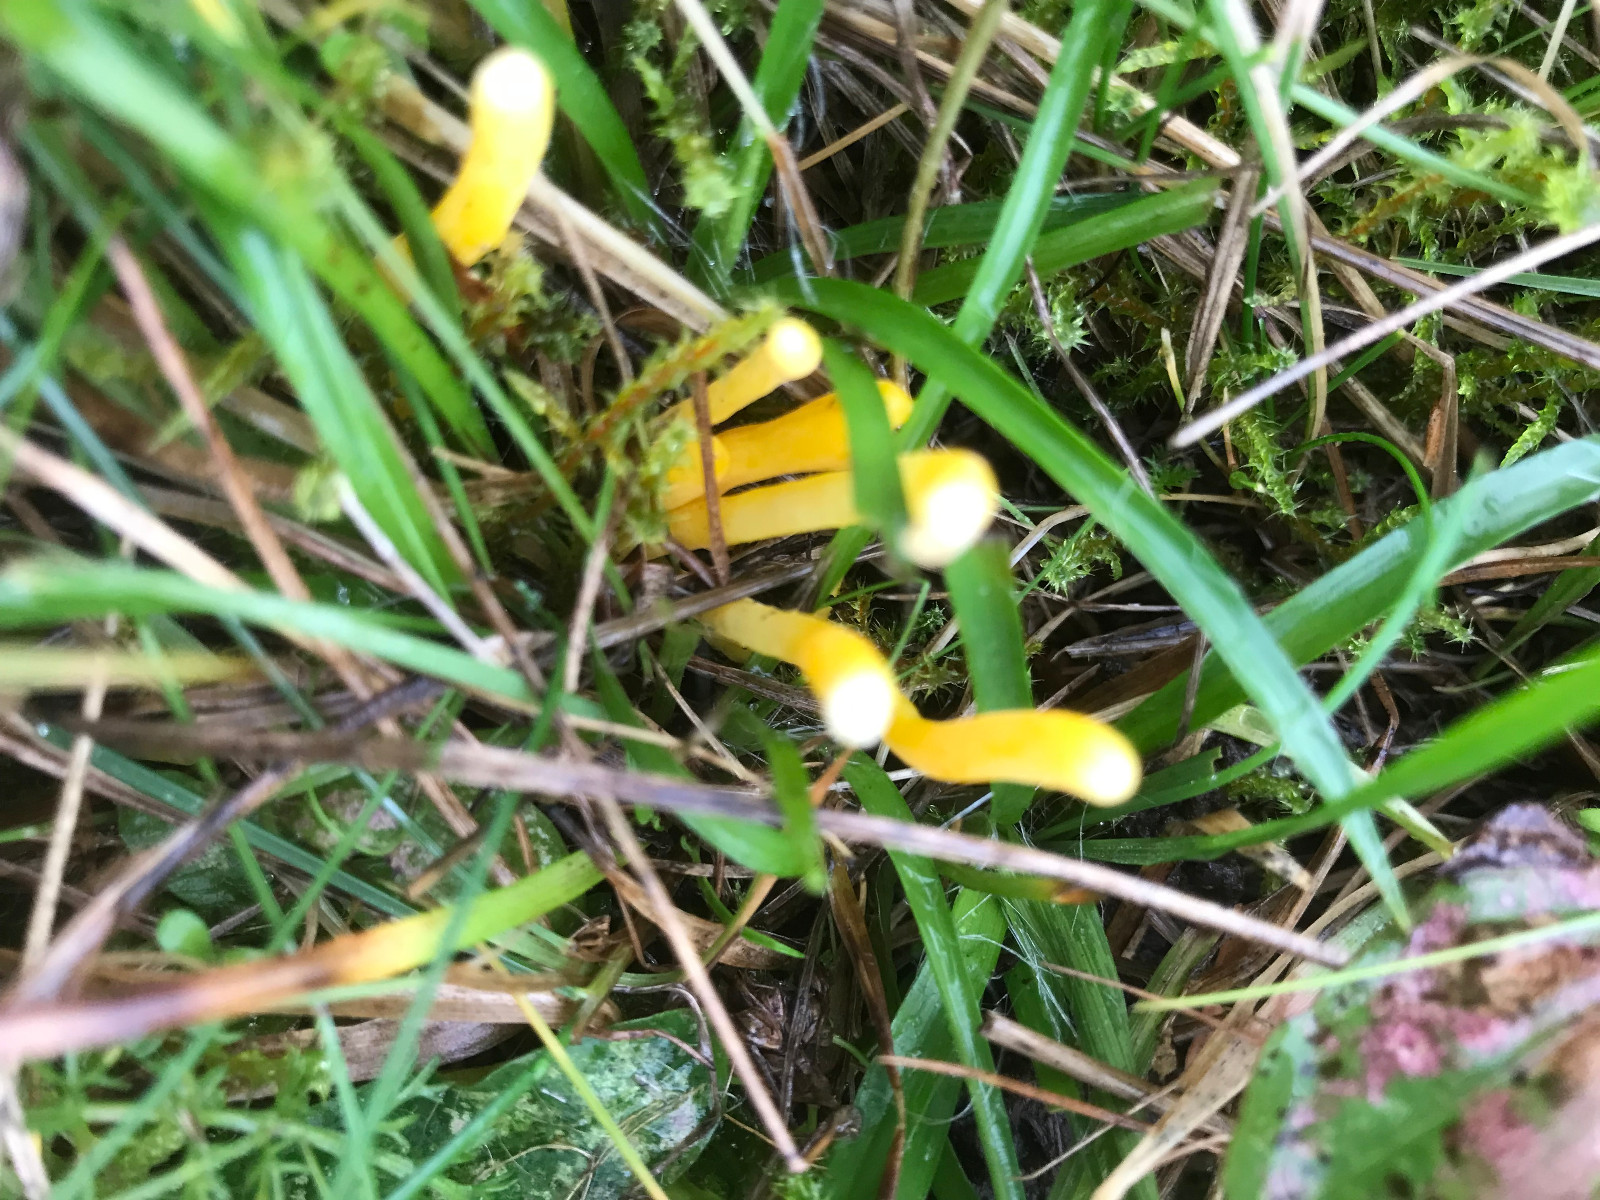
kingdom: Fungi
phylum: Basidiomycota
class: Agaricomycetes
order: Agaricales
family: Clavariaceae
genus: Clavulinopsis
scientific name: Clavulinopsis
